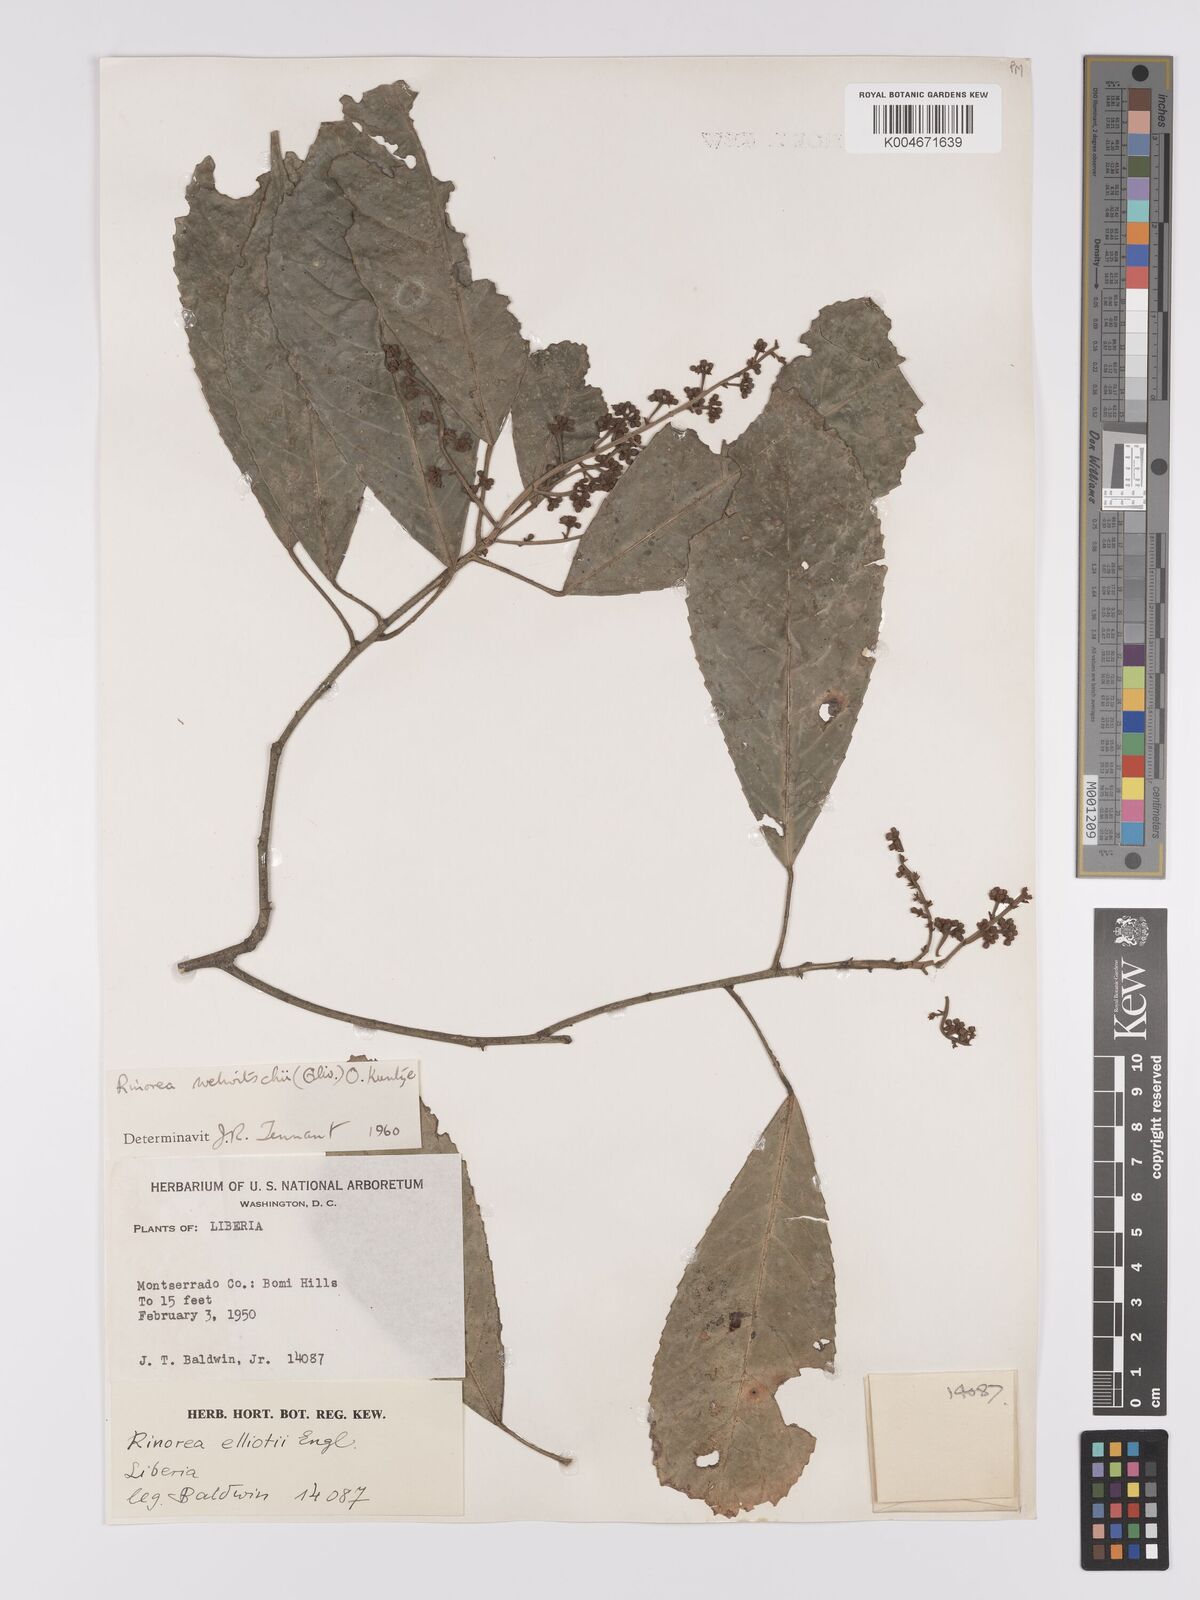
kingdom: Plantae
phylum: Tracheophyta
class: Magnoliopsida
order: Malpighiales
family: Violaceae
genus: Rinorea
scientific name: Rinorea welwitschii
